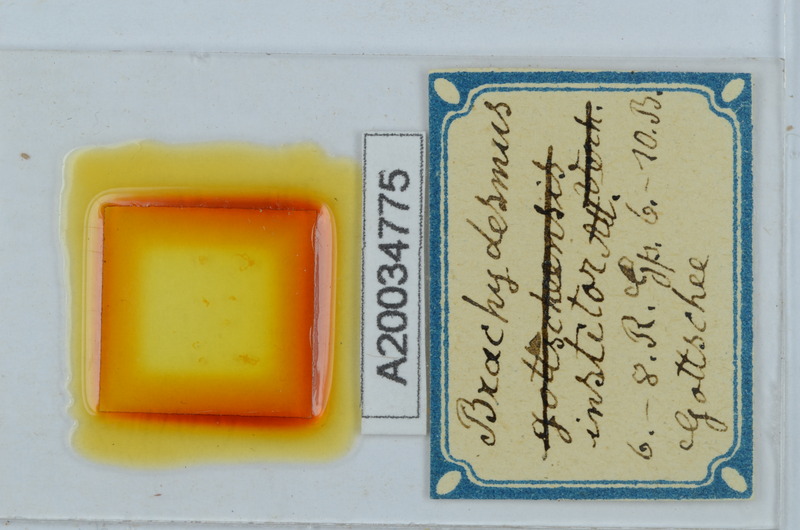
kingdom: Animalia
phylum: Arthropoda
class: Diplopoda
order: Polydesmida
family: Polydesmidae
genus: Brachydesmus
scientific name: Brachydesmus institor
